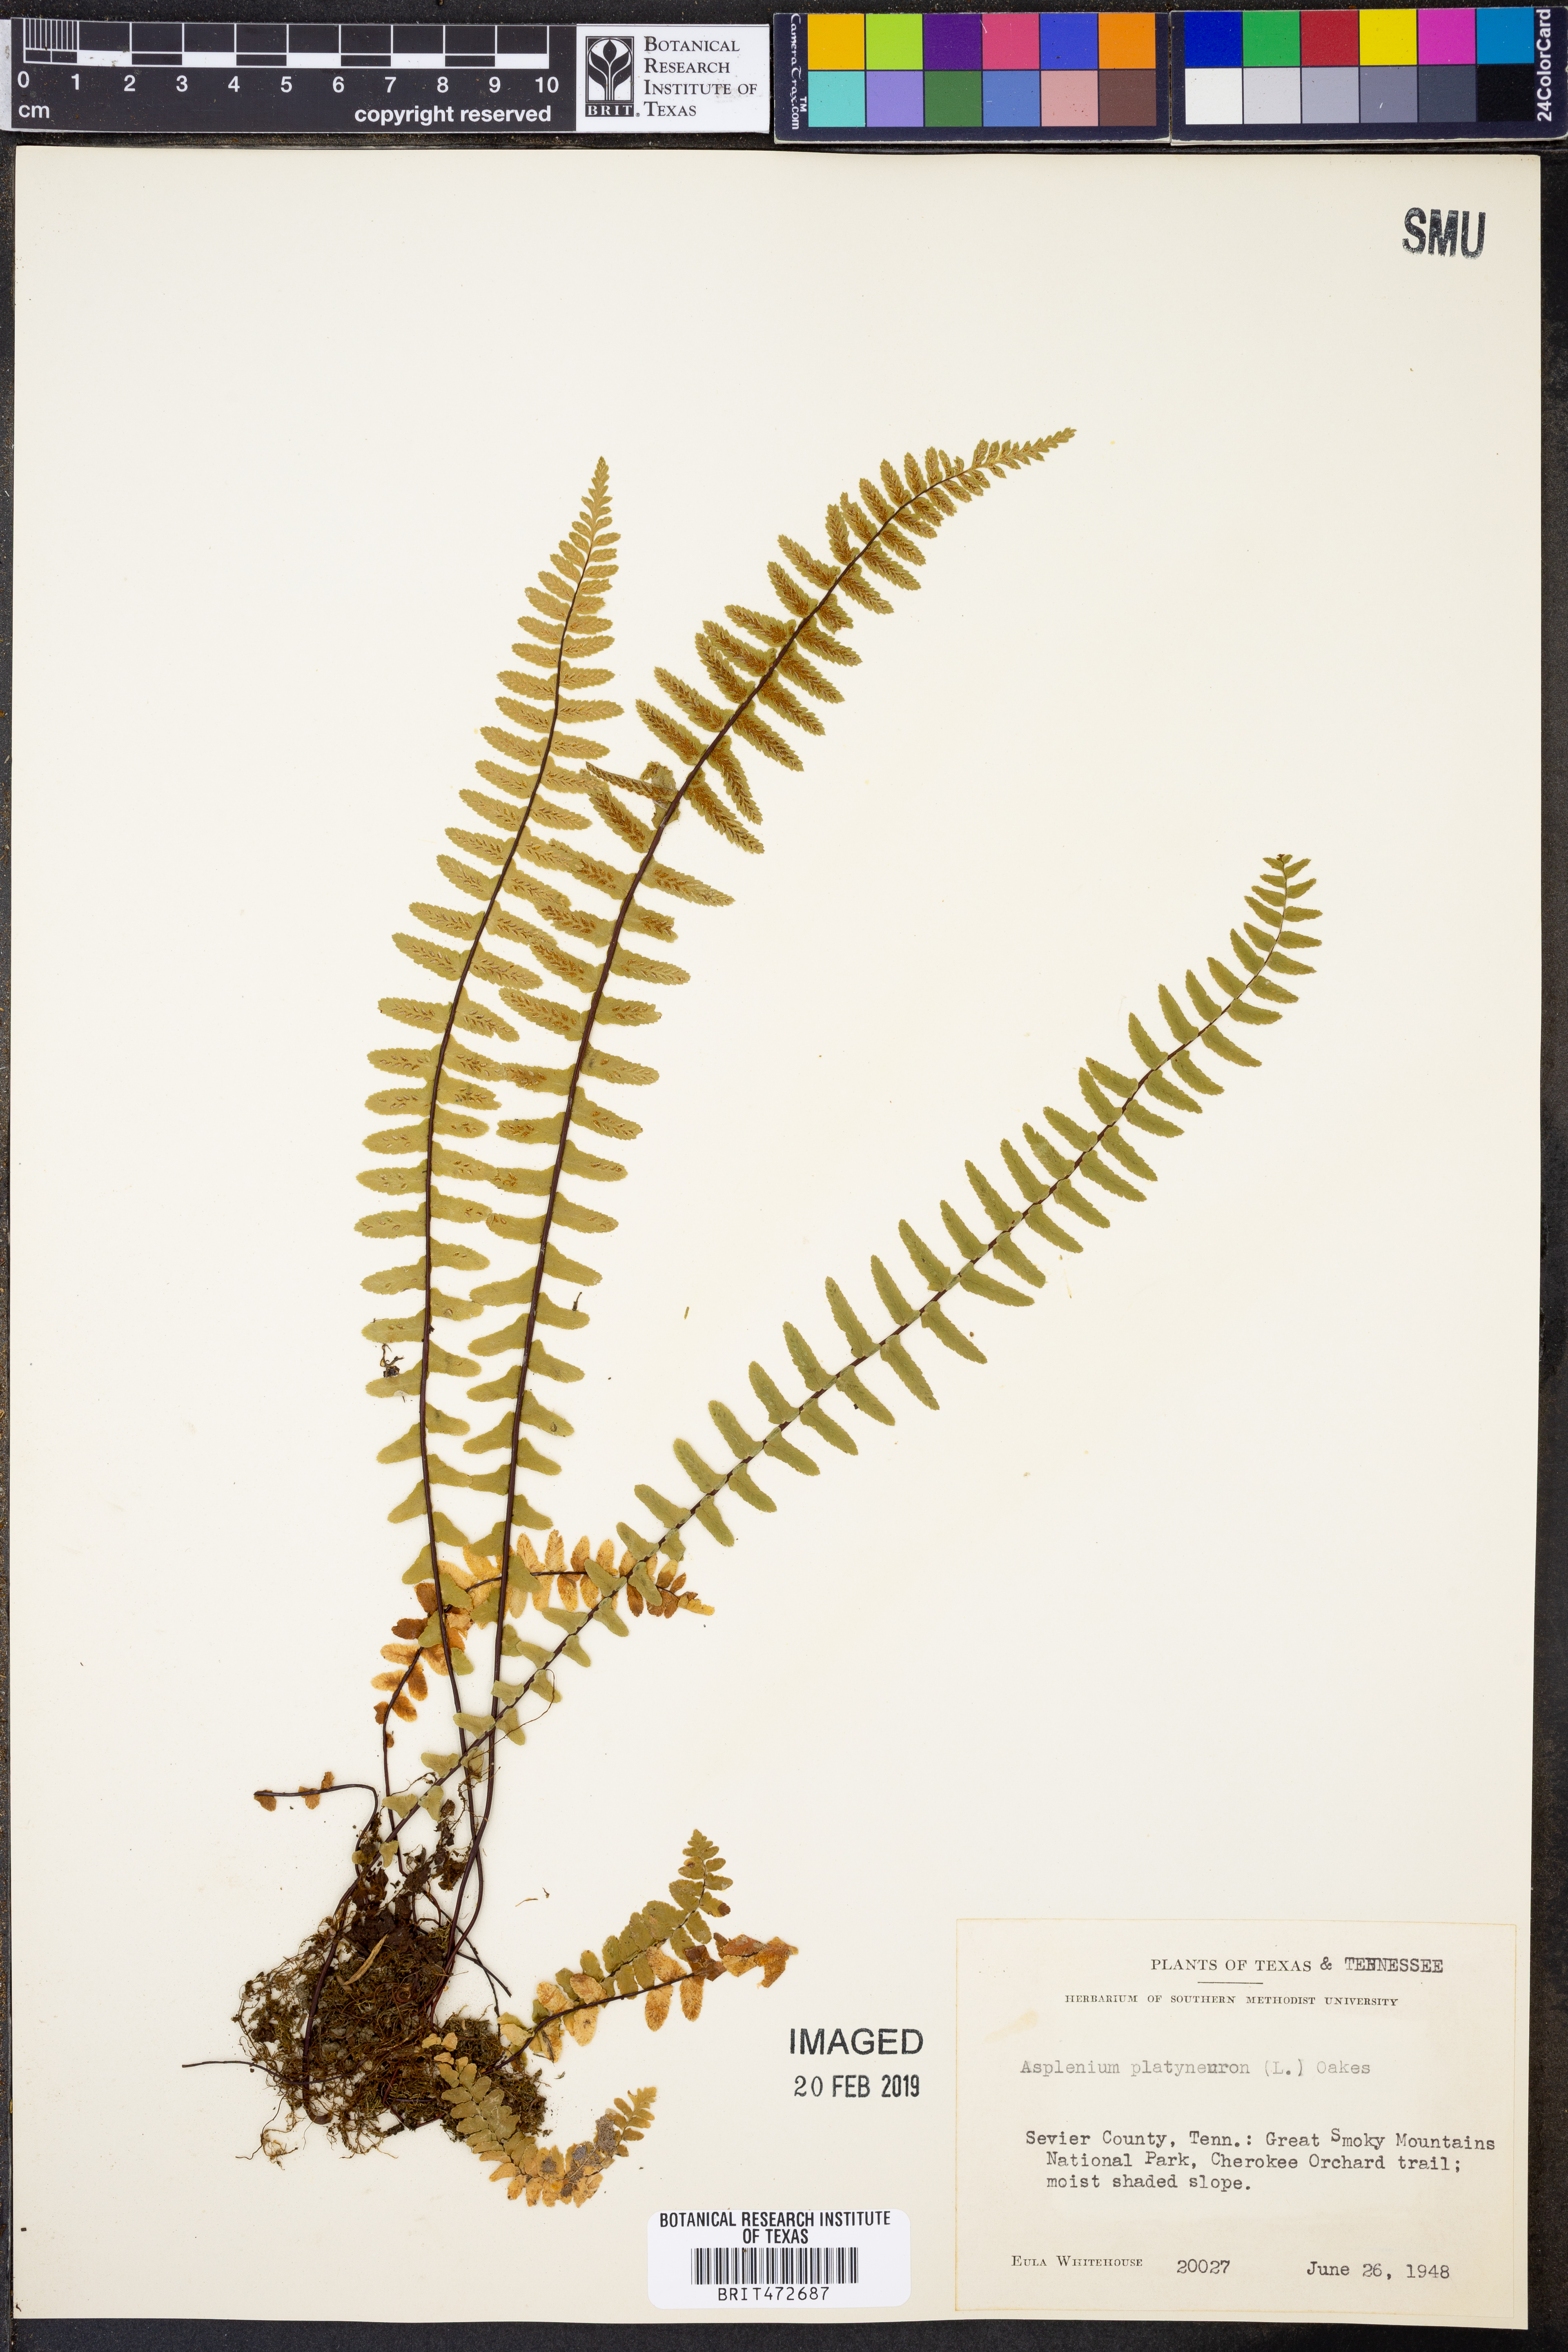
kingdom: Plantae
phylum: Tracheophyta
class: Polypodiopsida
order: Polypodiales
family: Aspleniaceae
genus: Asplenium
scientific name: Asplenium platyneuron
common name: Ebony spleenwort
